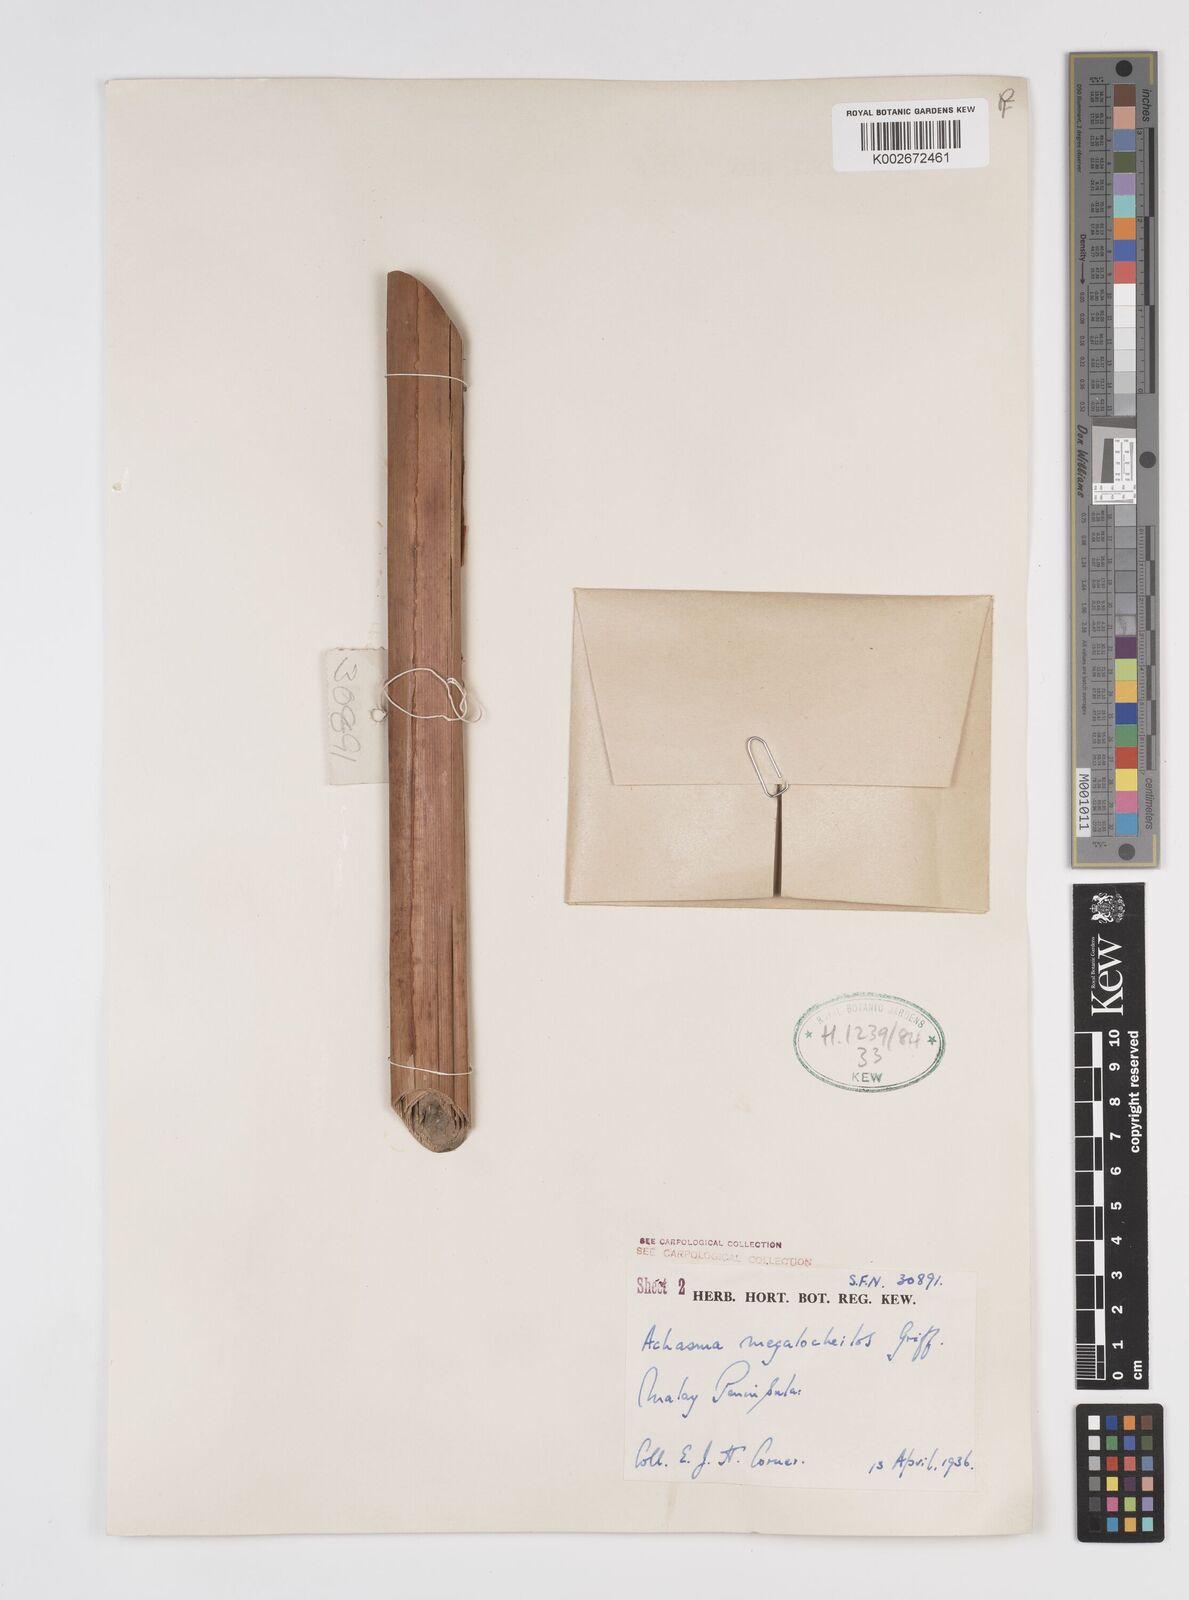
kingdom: Plantae
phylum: Tracheophyta
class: Liliopsida
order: Zingiberales
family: Zingiberaceae
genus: Etlingera
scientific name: Etlingera littoralis
